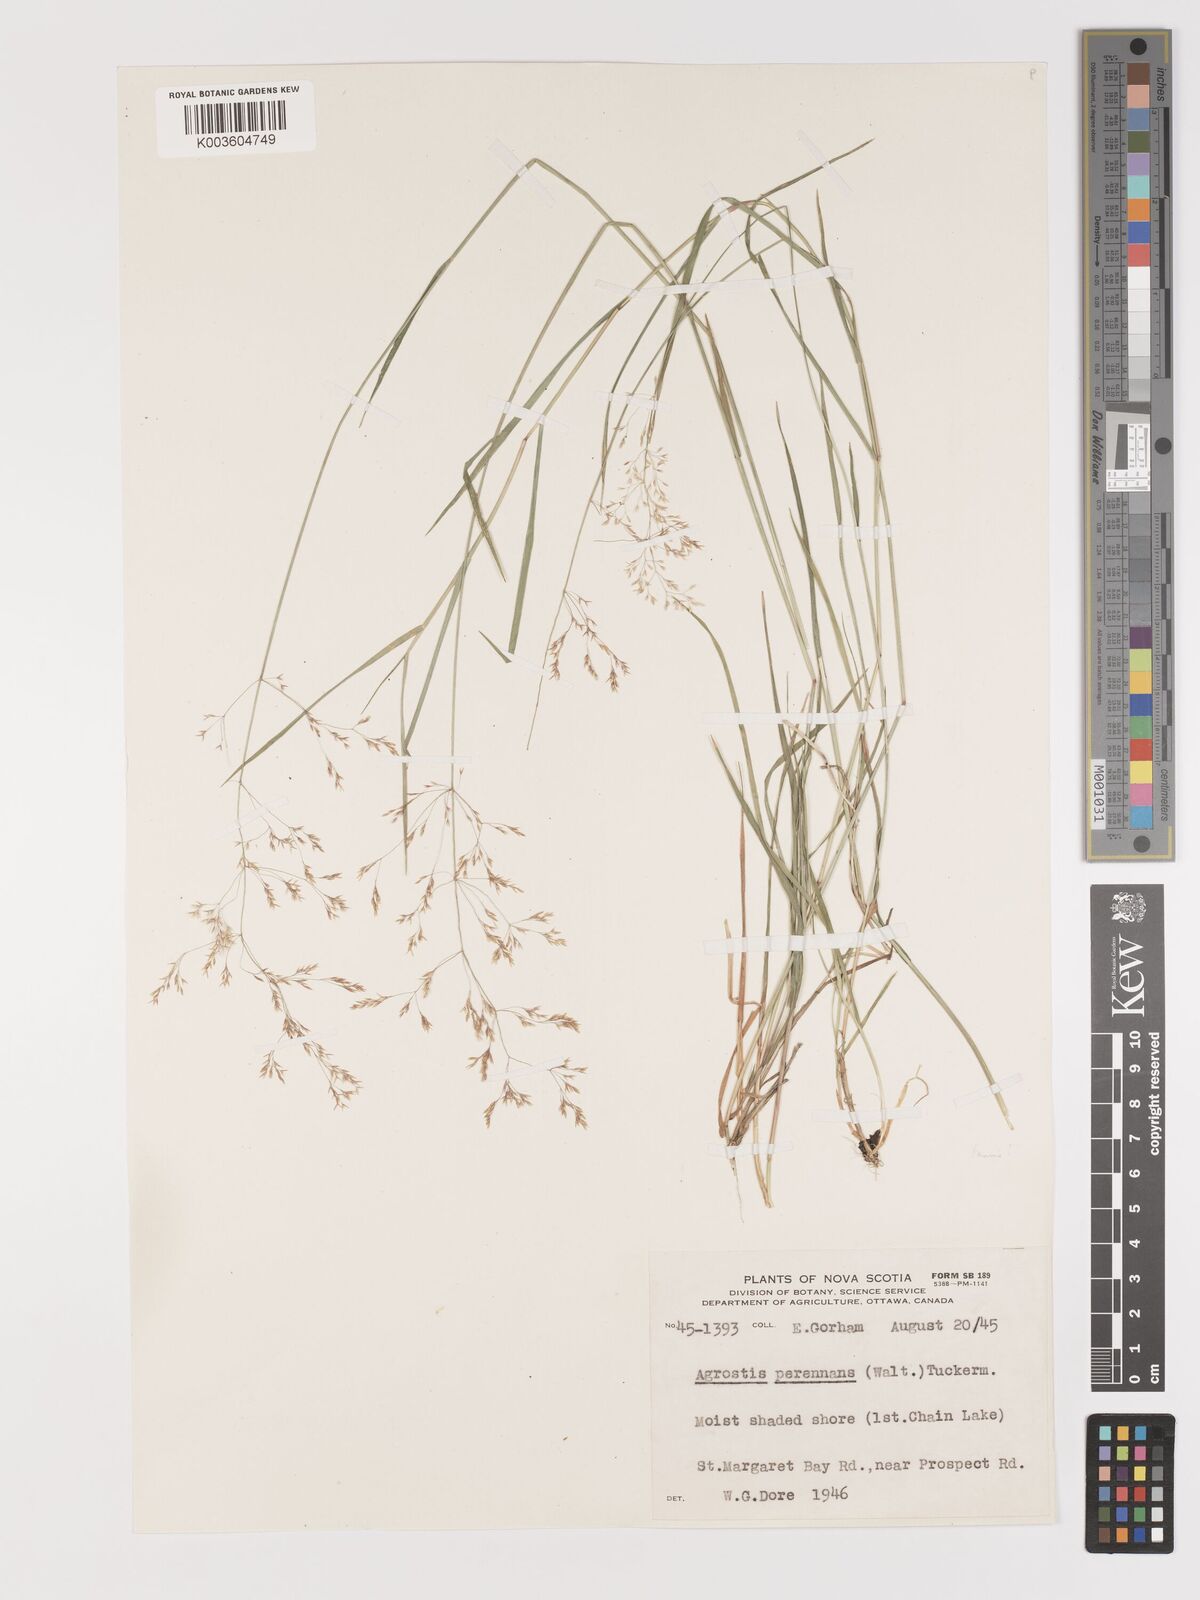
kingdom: Plantae
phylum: Tracheophyta
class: Liliopsida
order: Poales
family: Poaceae
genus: Agrostis
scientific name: Agrostis perennans
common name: Autumn bent
